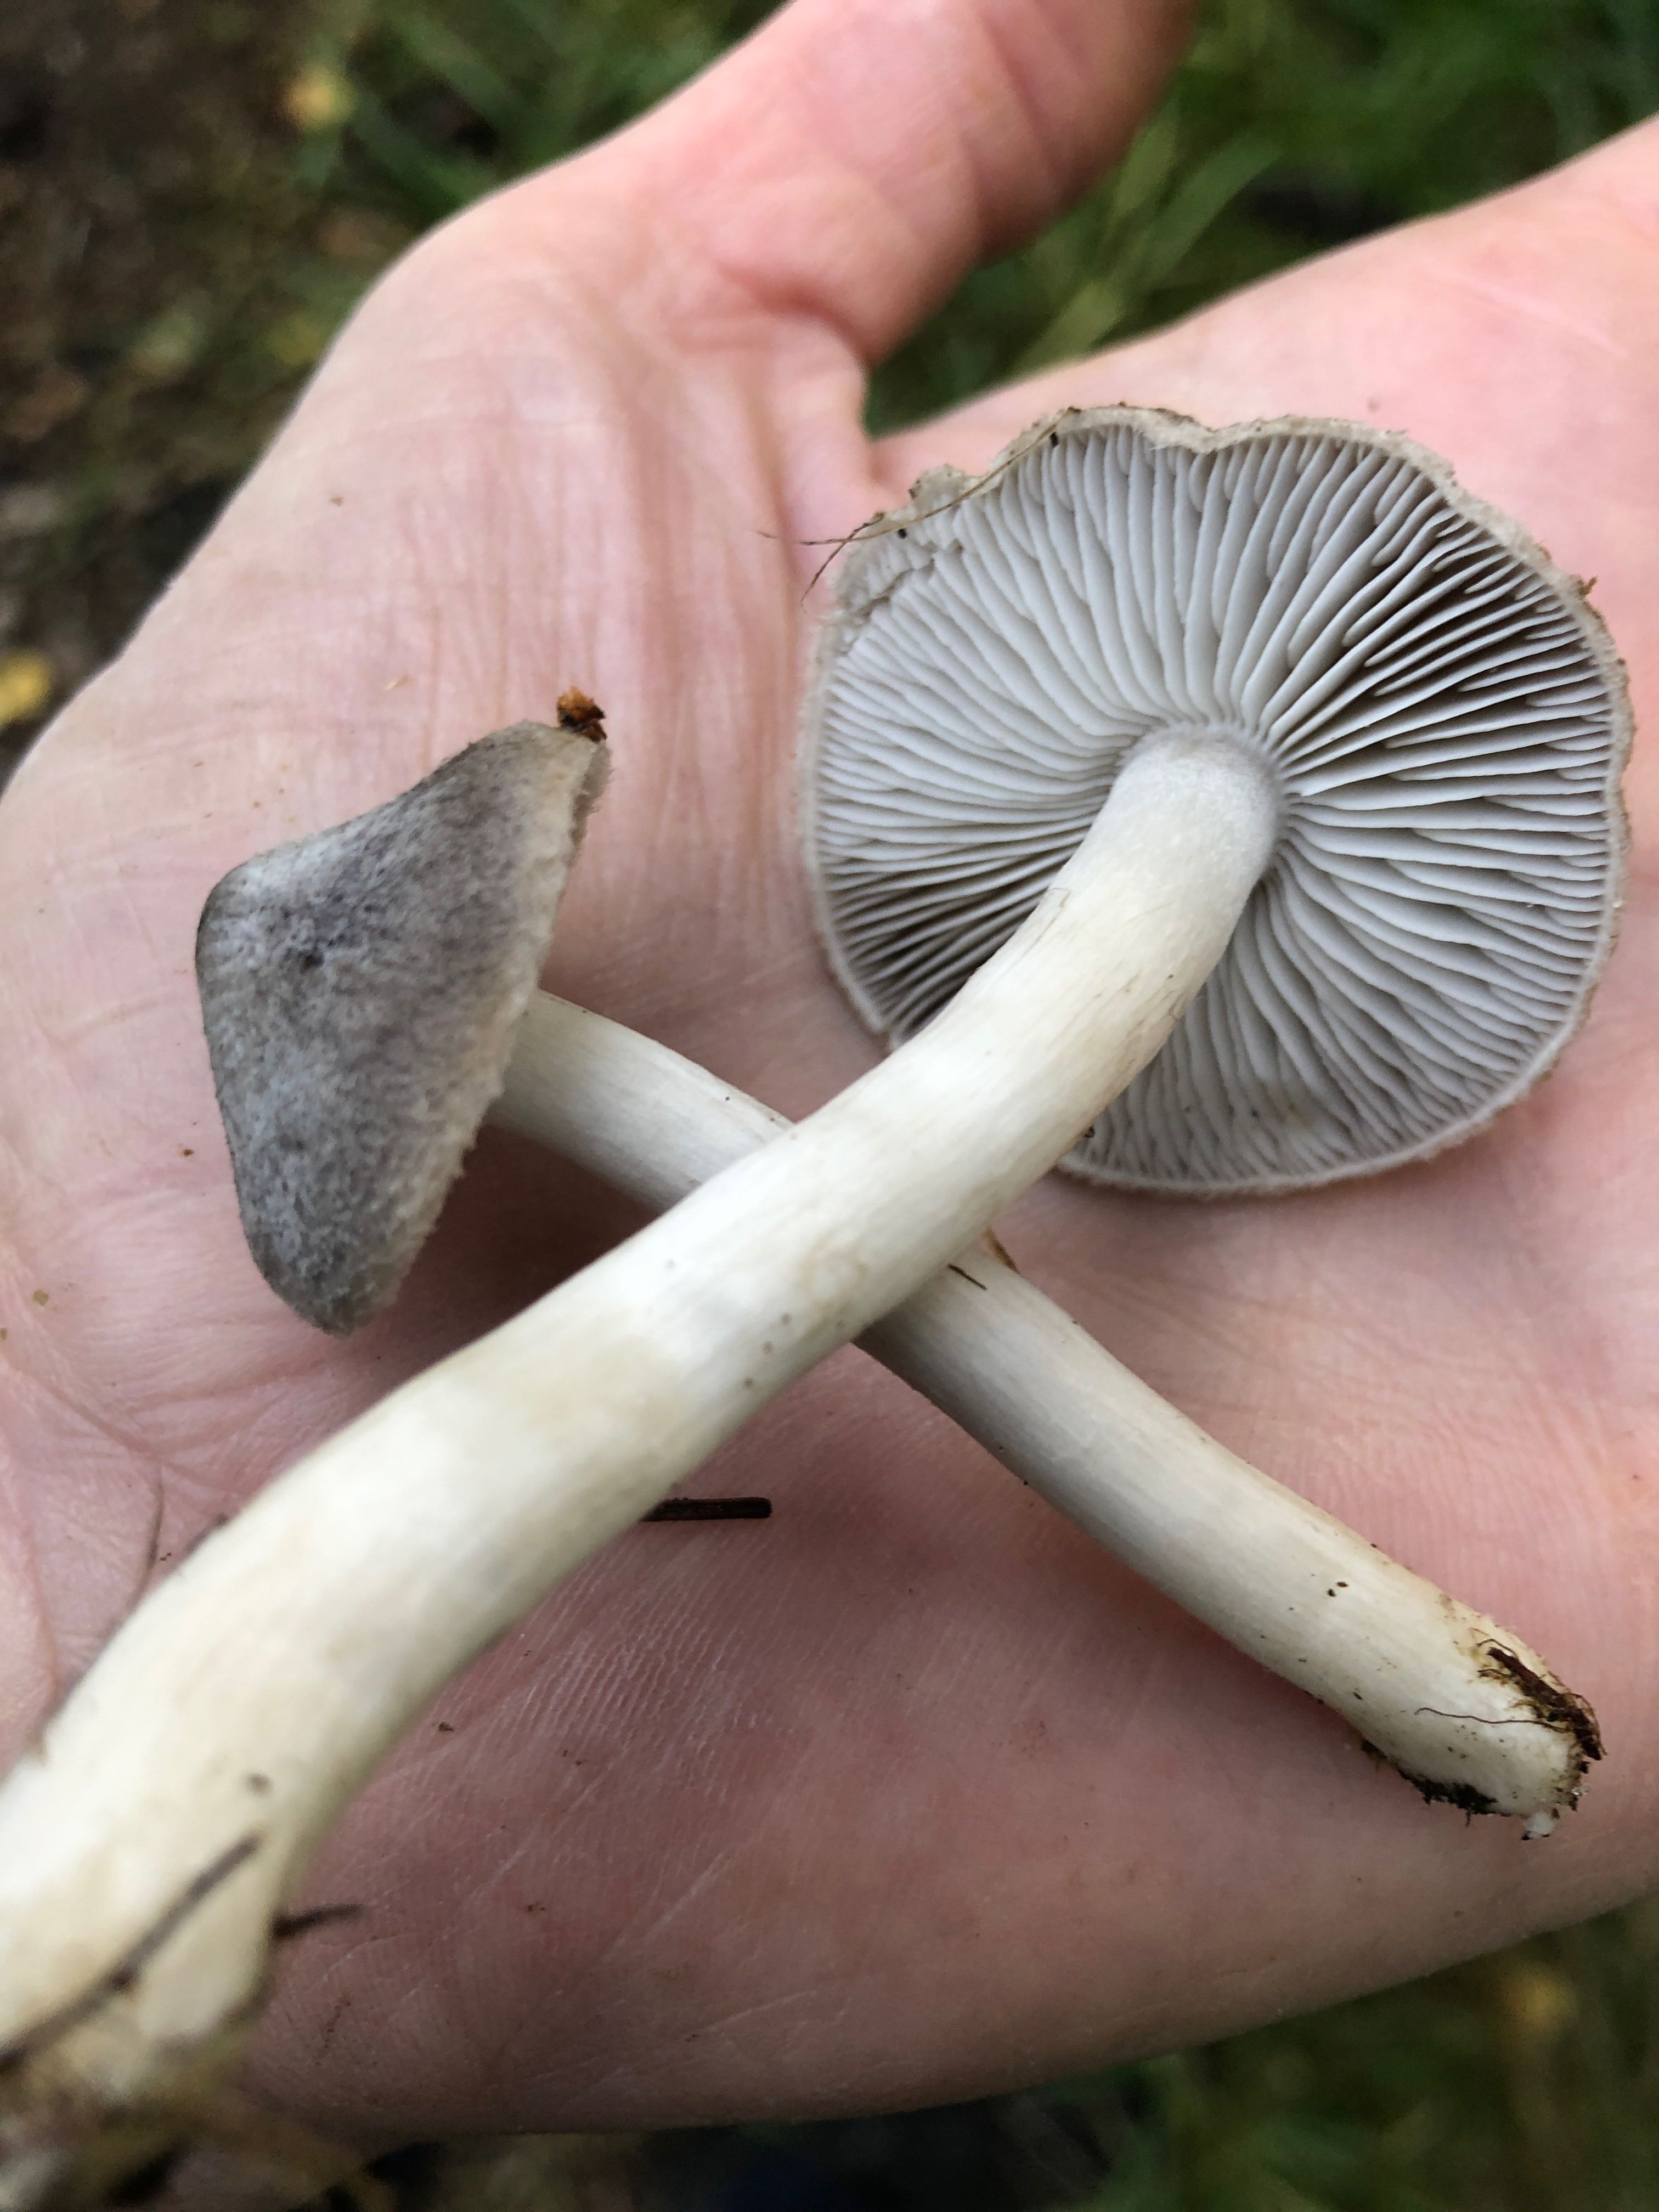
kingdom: Fungi
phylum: Basidiomycota
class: Agaricomycetes
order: Agaricales
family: Tricholomataceae
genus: Tricholoma
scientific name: Tricholoma terreum
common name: jordfarvet ridderhat
